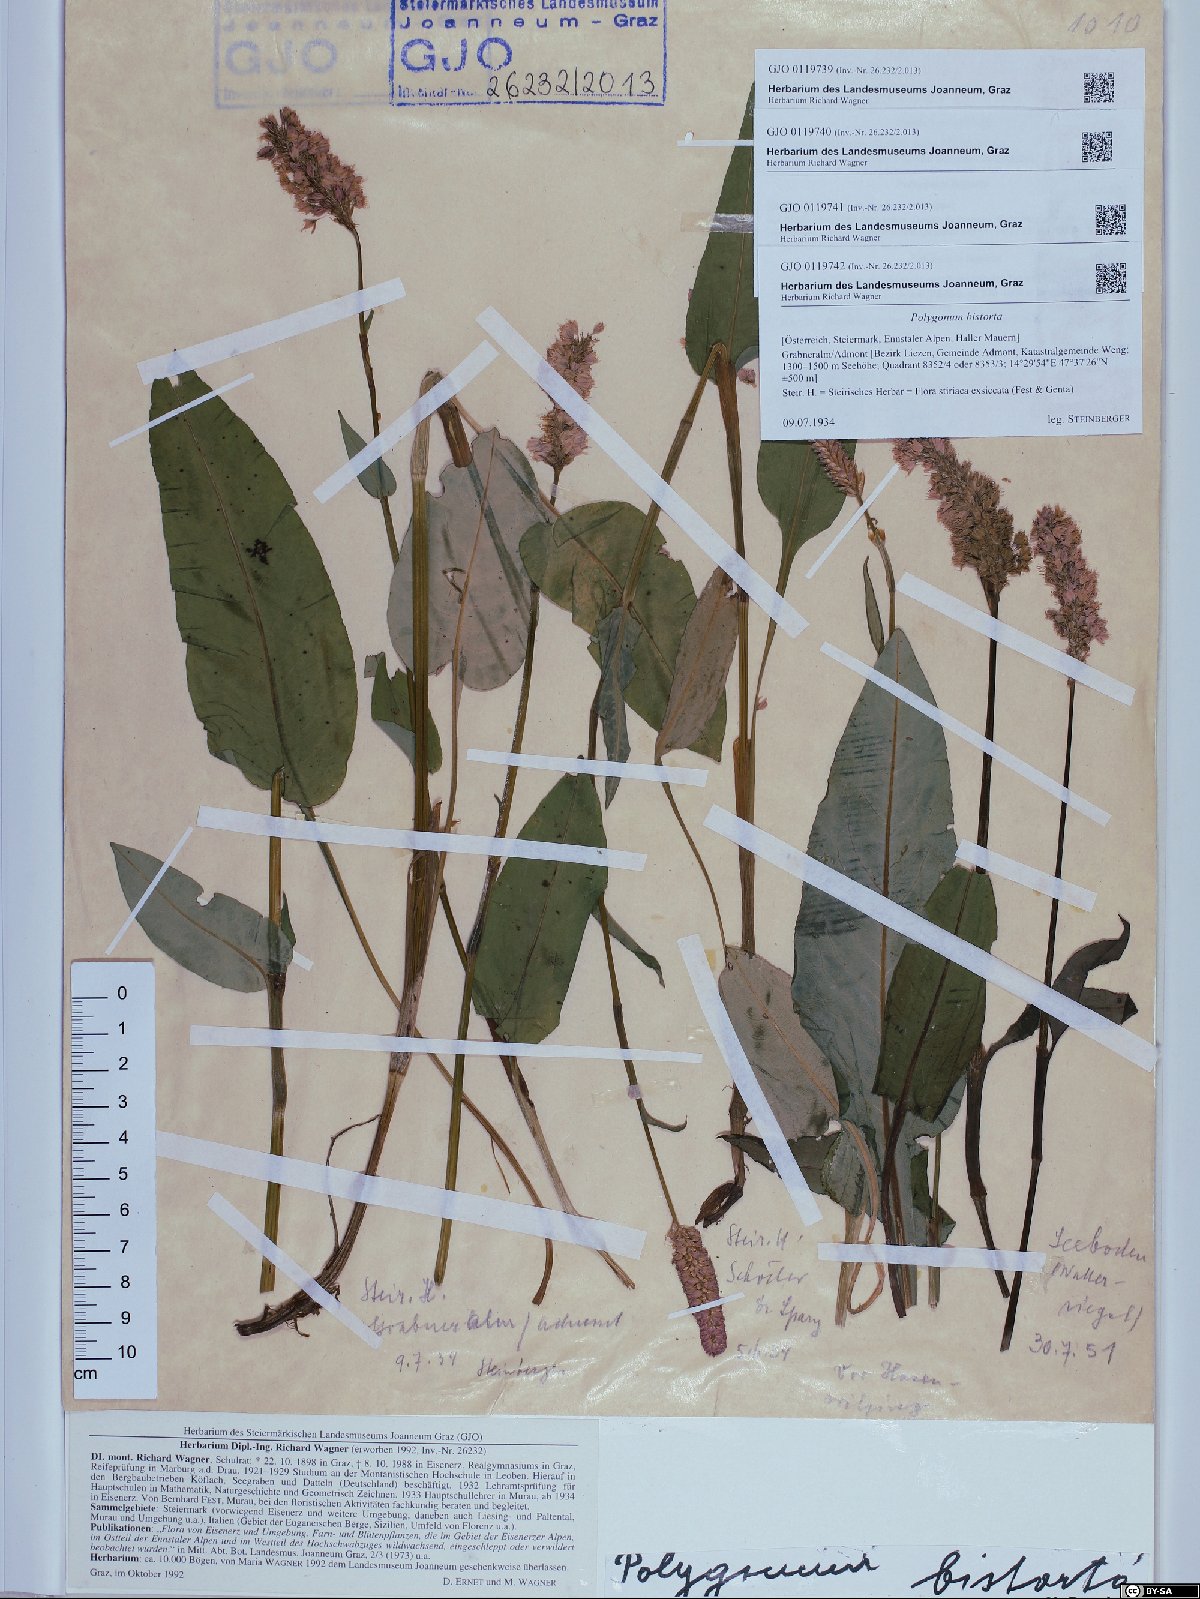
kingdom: Plantae
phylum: Tracheophyta
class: Magnoliopsida
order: Caryophyllales
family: Polygonaceae
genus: Bistorta
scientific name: Bistorta officinalis
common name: Common bistort
